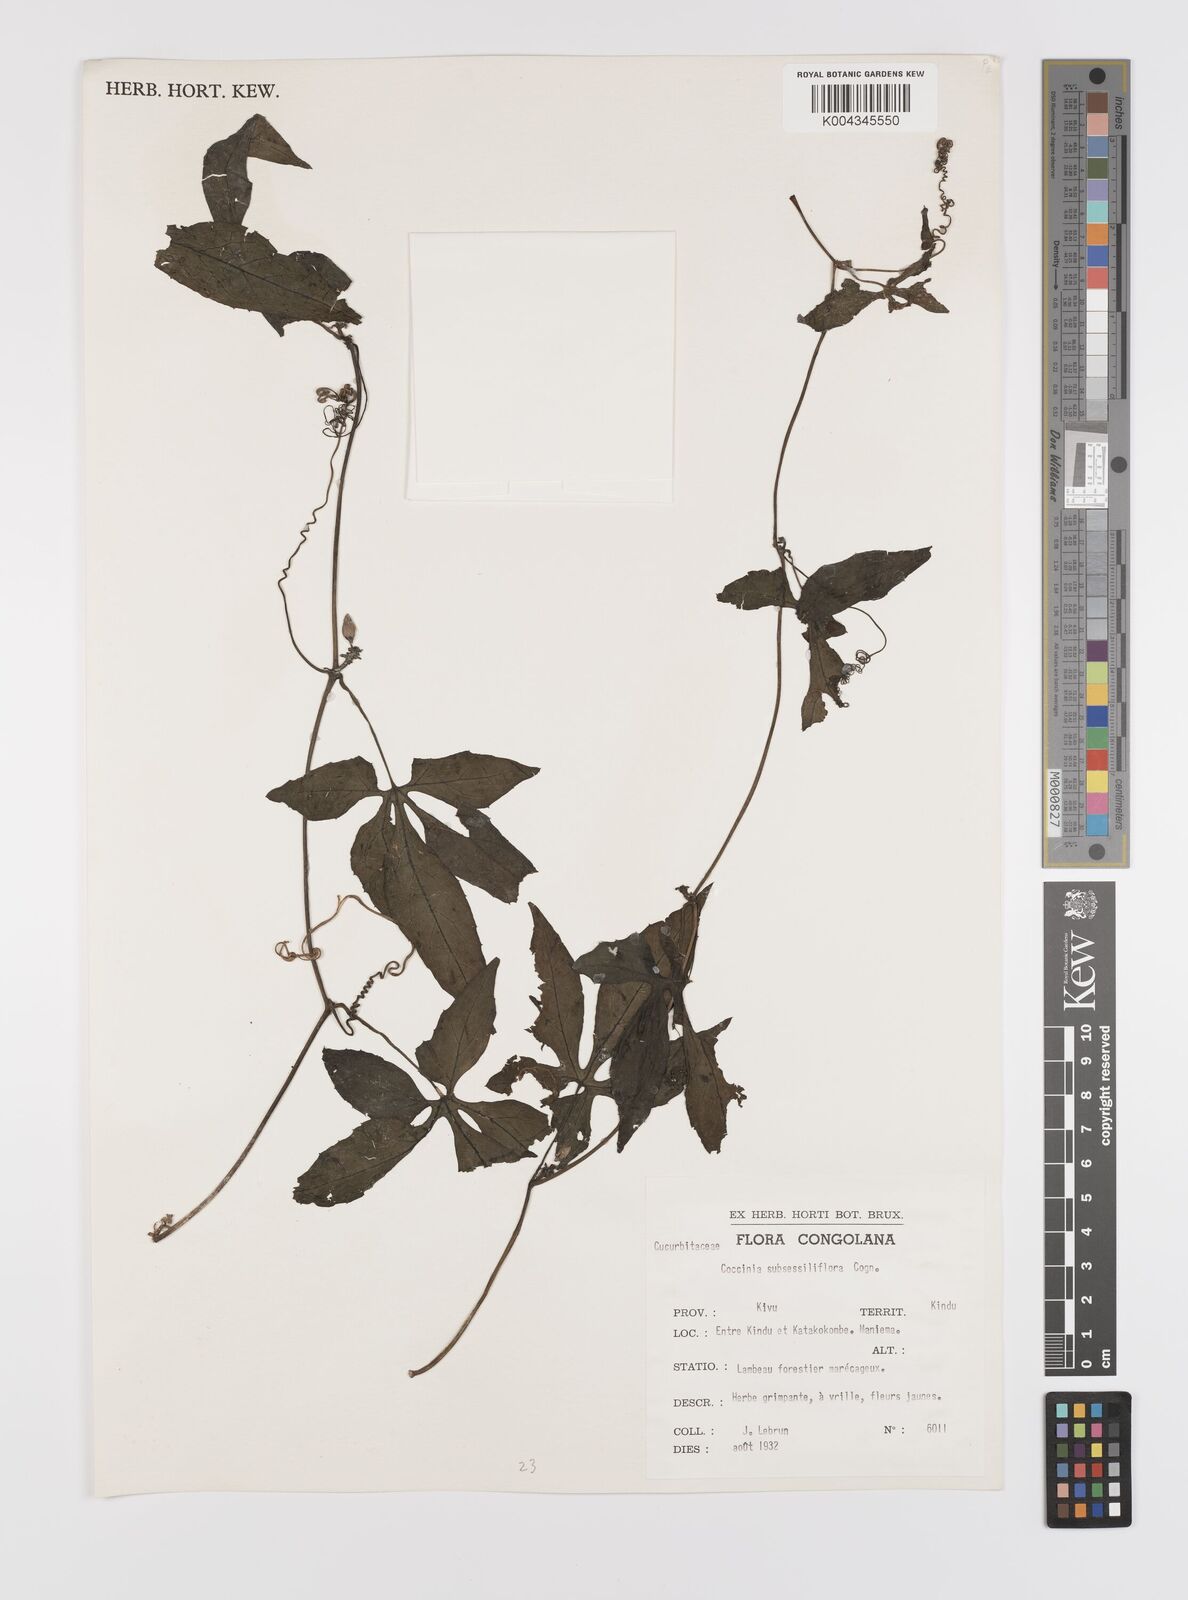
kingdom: Plantae
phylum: Tracheophyta
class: Magnoliopsida
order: Cucurbitales
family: Cucurbitaceae
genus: Coccinia
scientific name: Coccinia subsessiliflora
